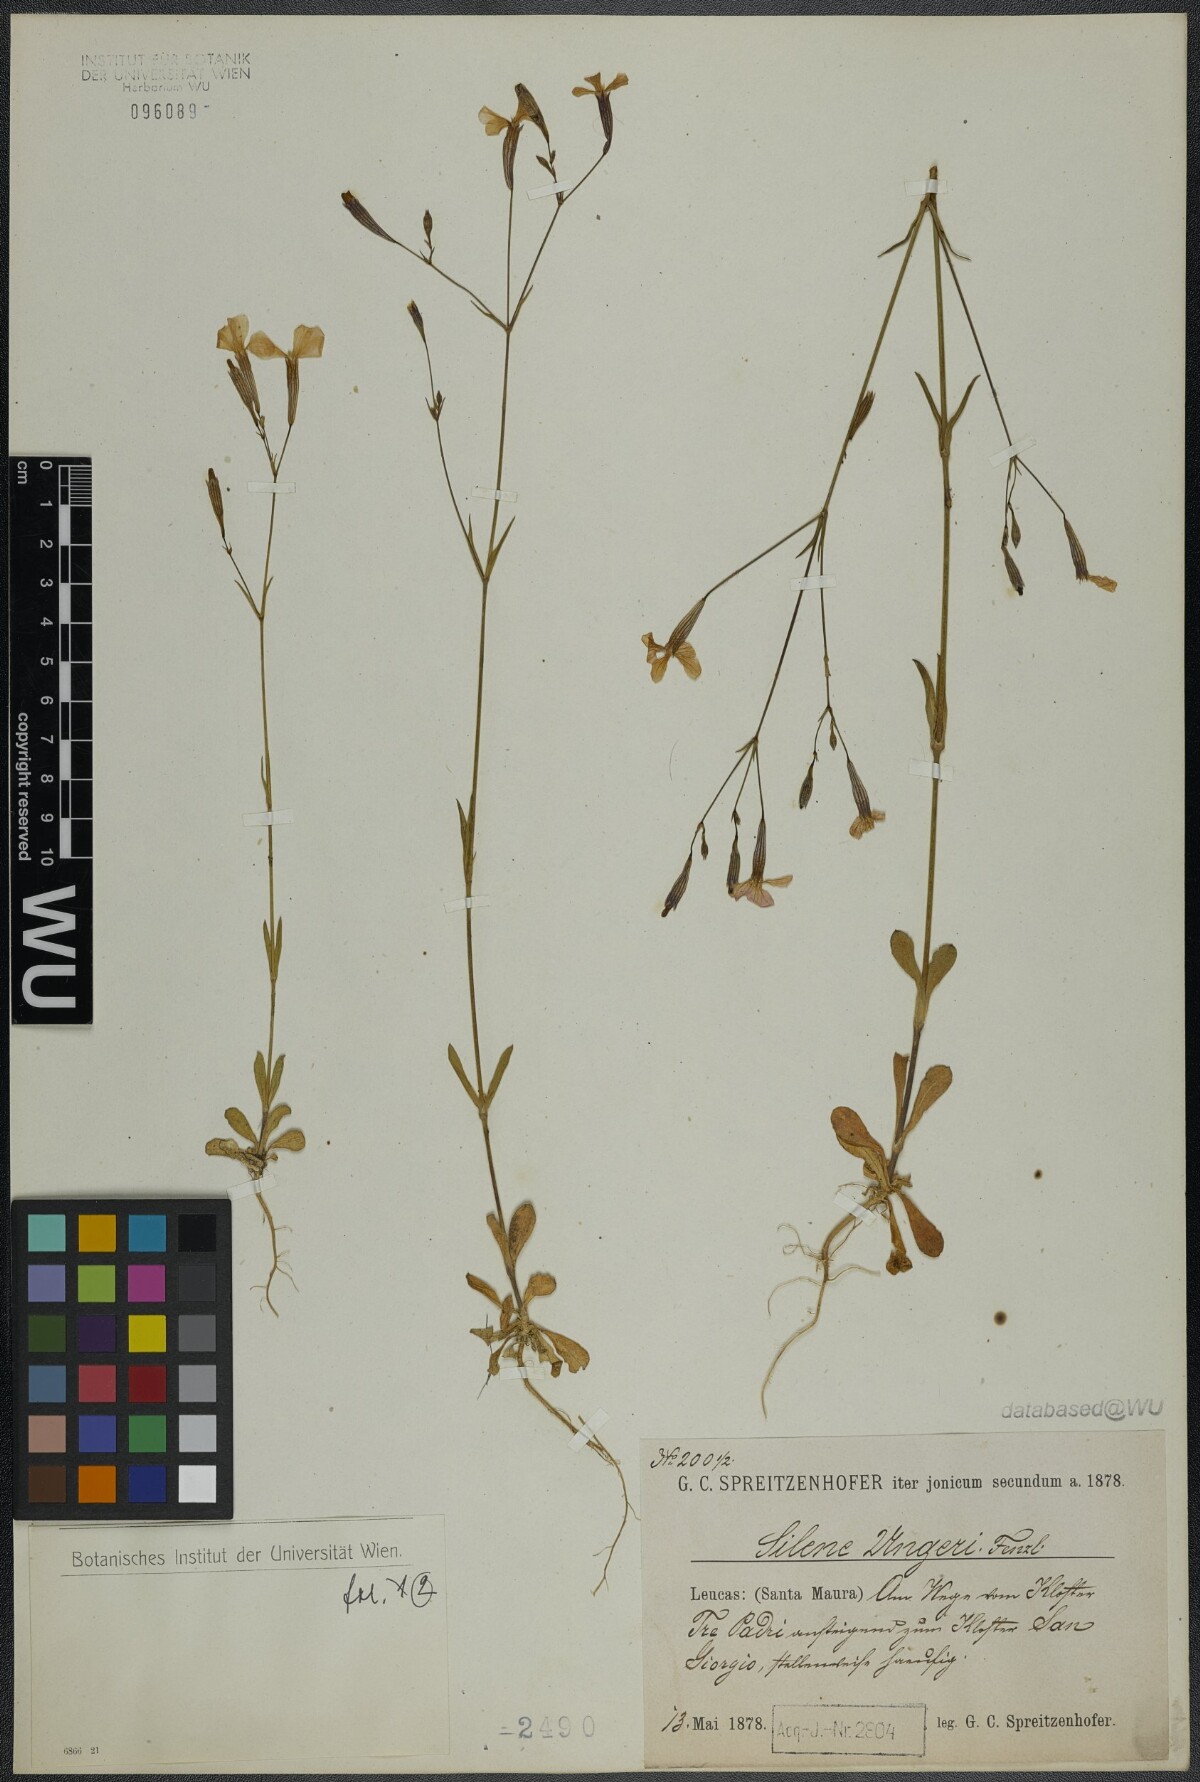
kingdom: Plantae
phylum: Tracheophyta
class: Magnoliopsida
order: Caryophyllales
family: Caryophyllaceae
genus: Silene
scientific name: Silene ungeri
